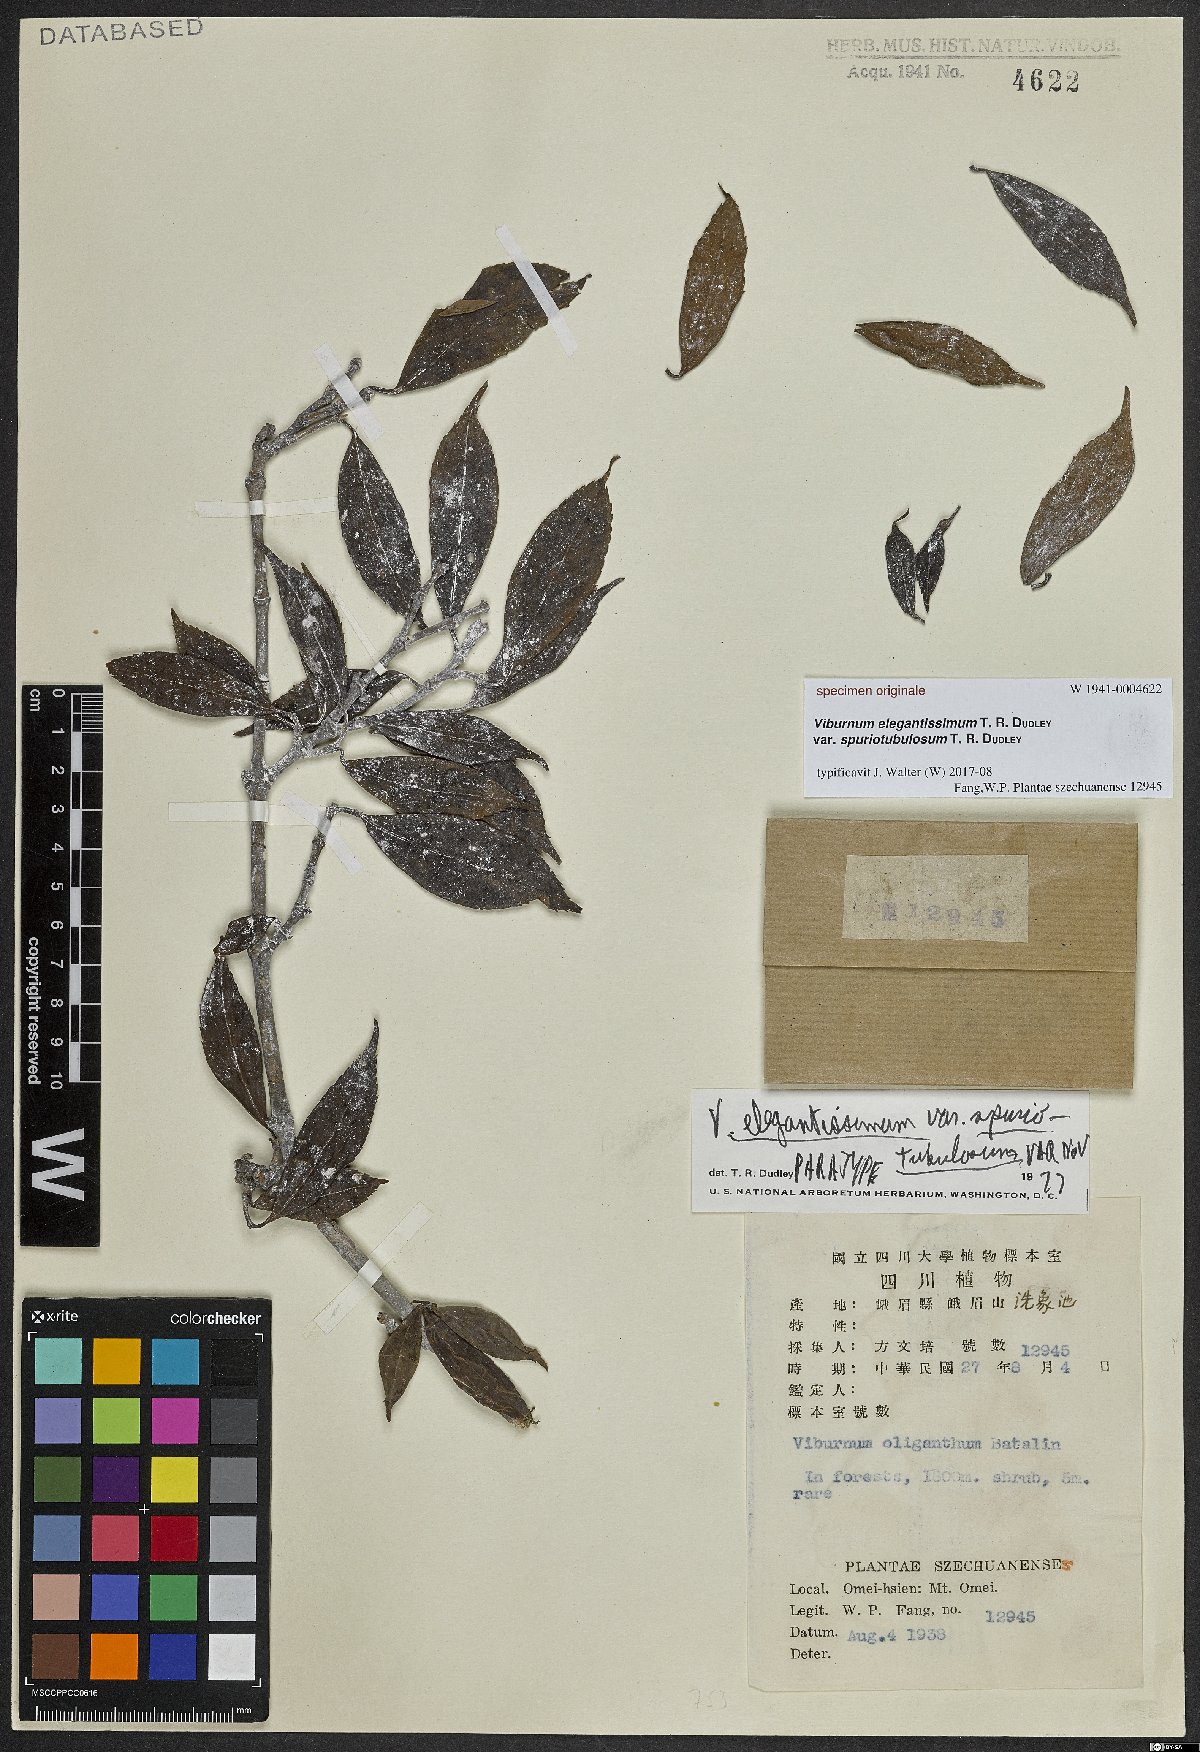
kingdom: Plantae
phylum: Tracheophyta
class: Magnoliopsida
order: Dipsacales
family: Viburnaceae
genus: Viburnum
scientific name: Viburnum
